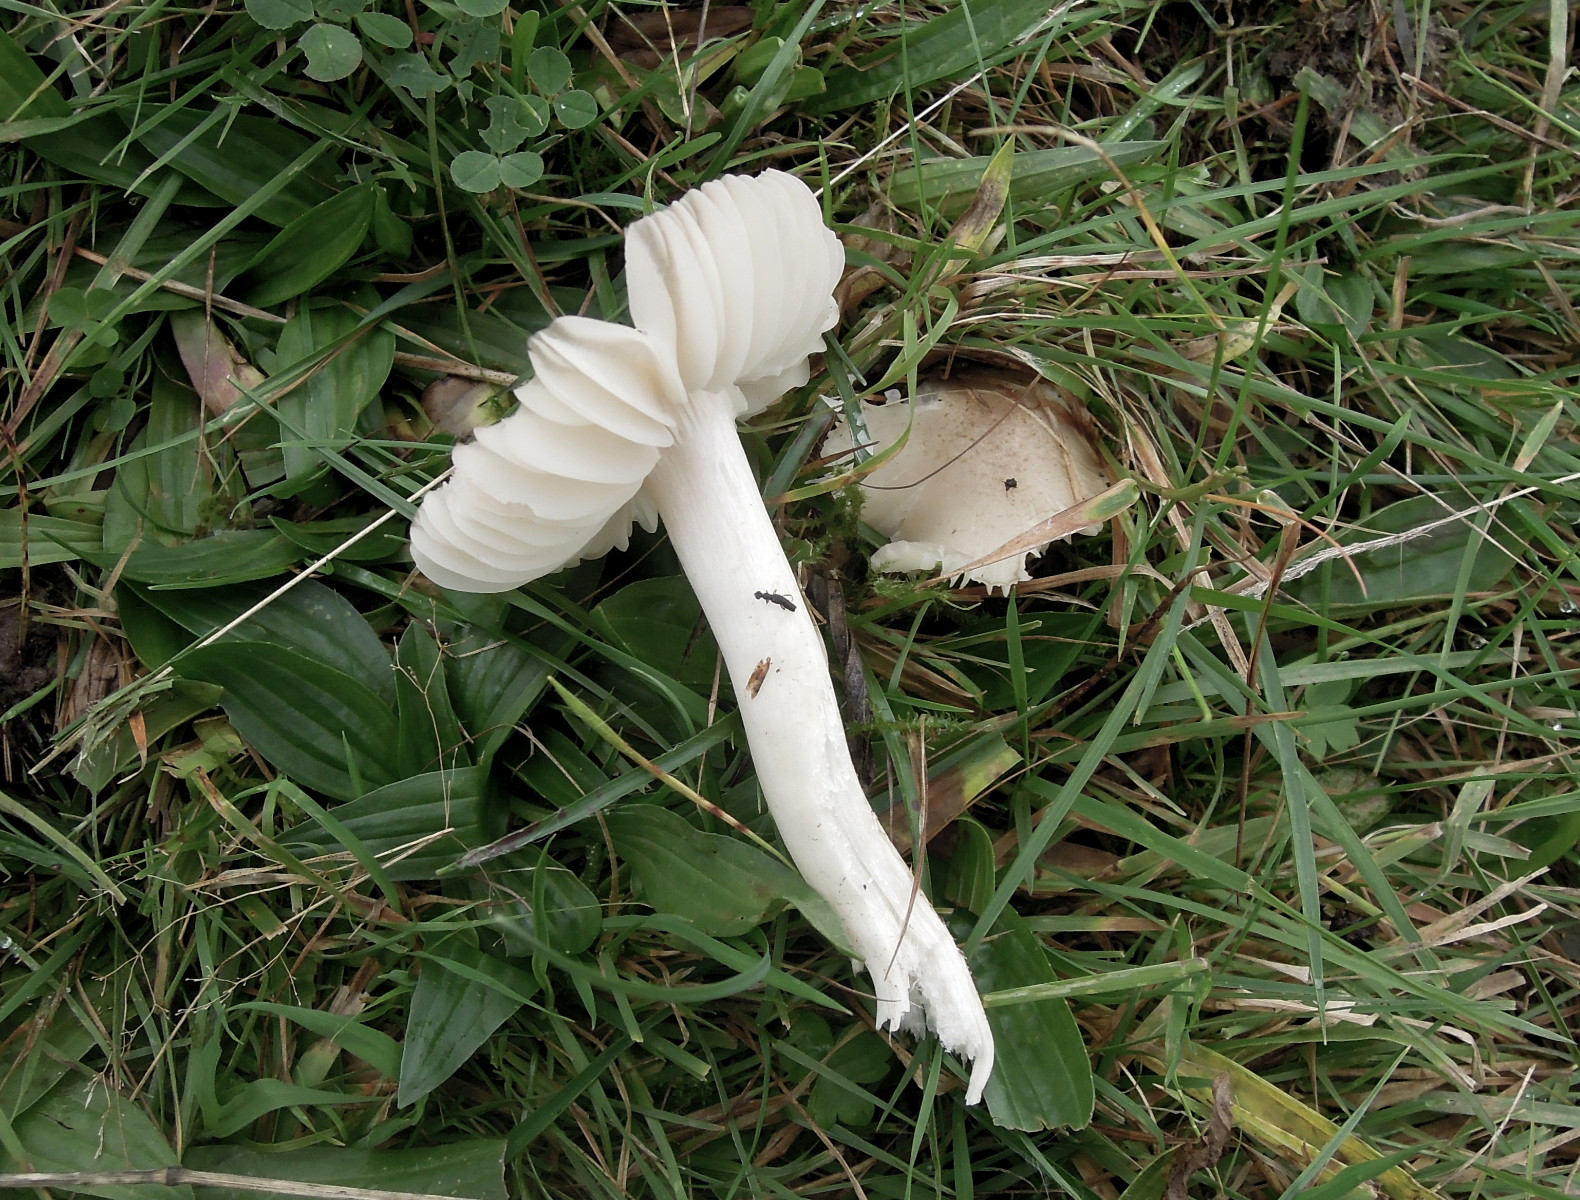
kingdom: Fungi
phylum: Basidiomycota
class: Agaricomycetes
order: Agaricales
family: Hygrophoraceae
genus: Cuphophyllus
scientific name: Cuphophyllus fornicatus
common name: gråbrun vokshat
